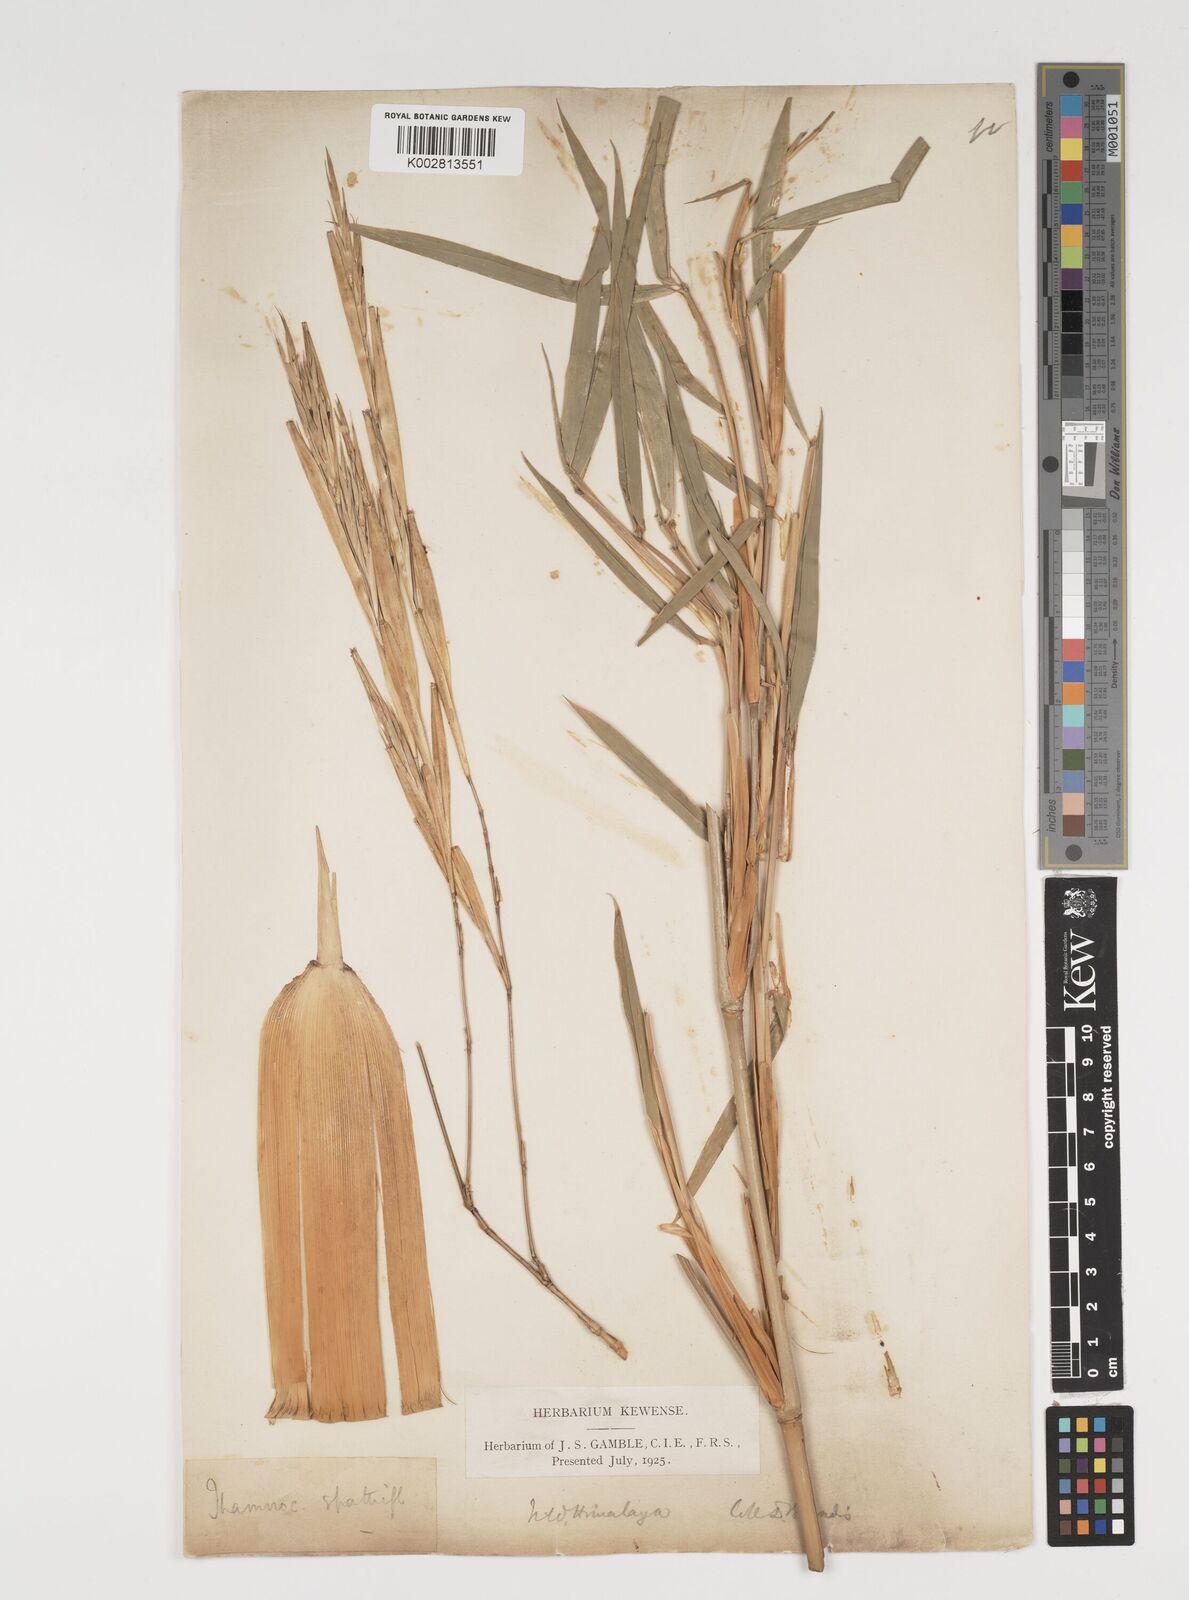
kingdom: Plantae
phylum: Tracheophyta
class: Liliopsida
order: Poales
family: Poaceae
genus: Thamnocalamus
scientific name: Thamnocalamus spathiflorus
